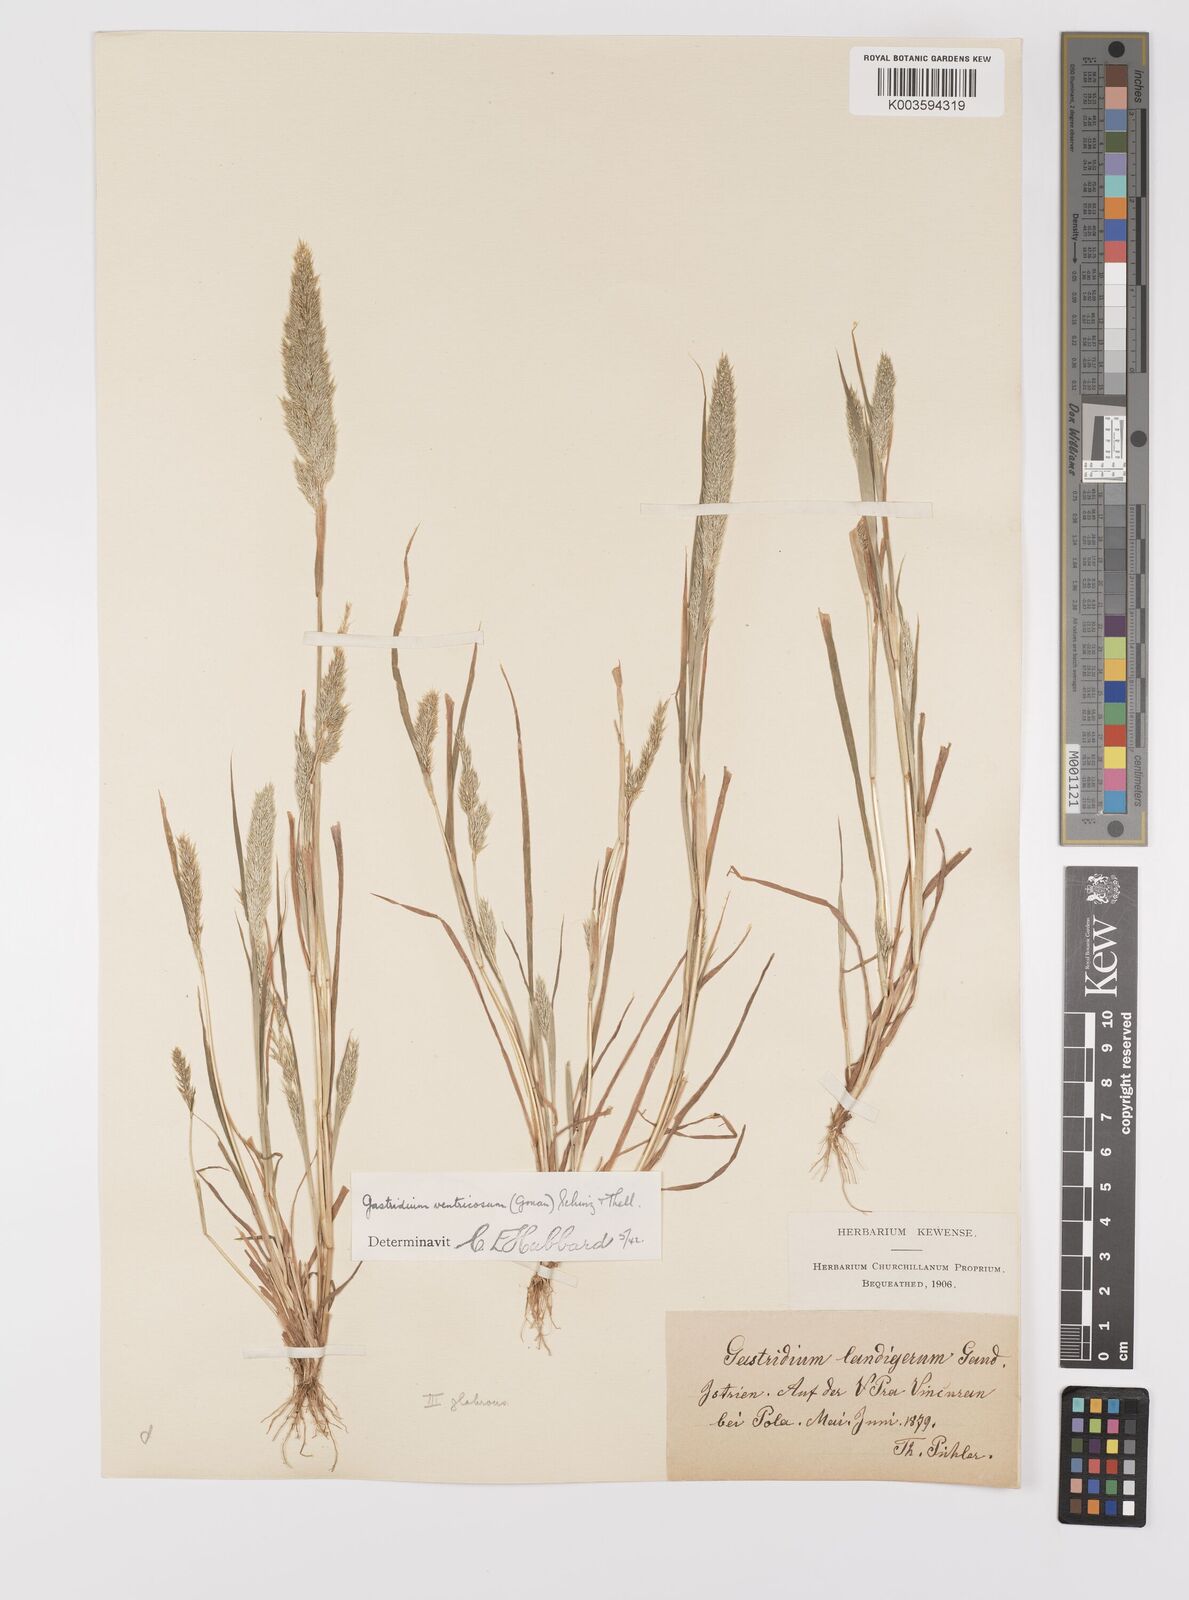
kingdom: Plantae
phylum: Tracheophyta
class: Liliopsida
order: Poales
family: Poaceae
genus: Gastridium
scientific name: Gastridium ventricosum
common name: Nit-grass
